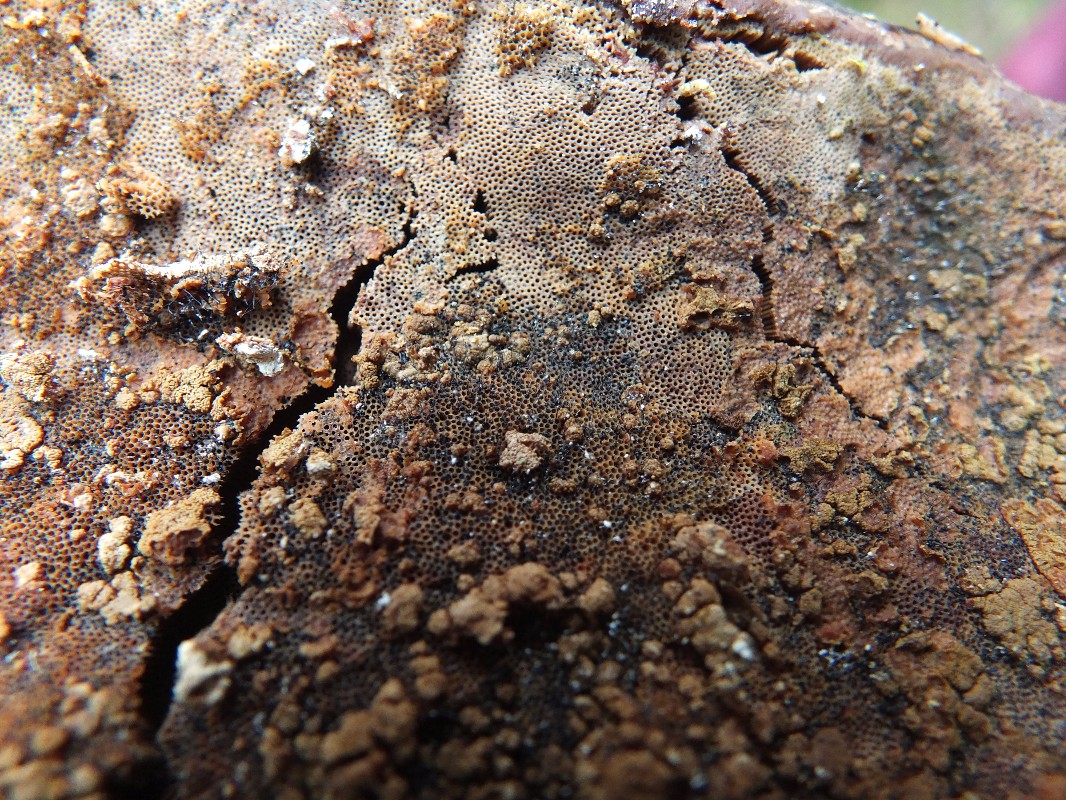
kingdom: Fungi
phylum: Ascomycota
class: Sordariomycetes
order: Hypocreales
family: Hypocreaceae
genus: Trichoderma
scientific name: Trichoderma pulvinatum
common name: snyltende kødkerne
